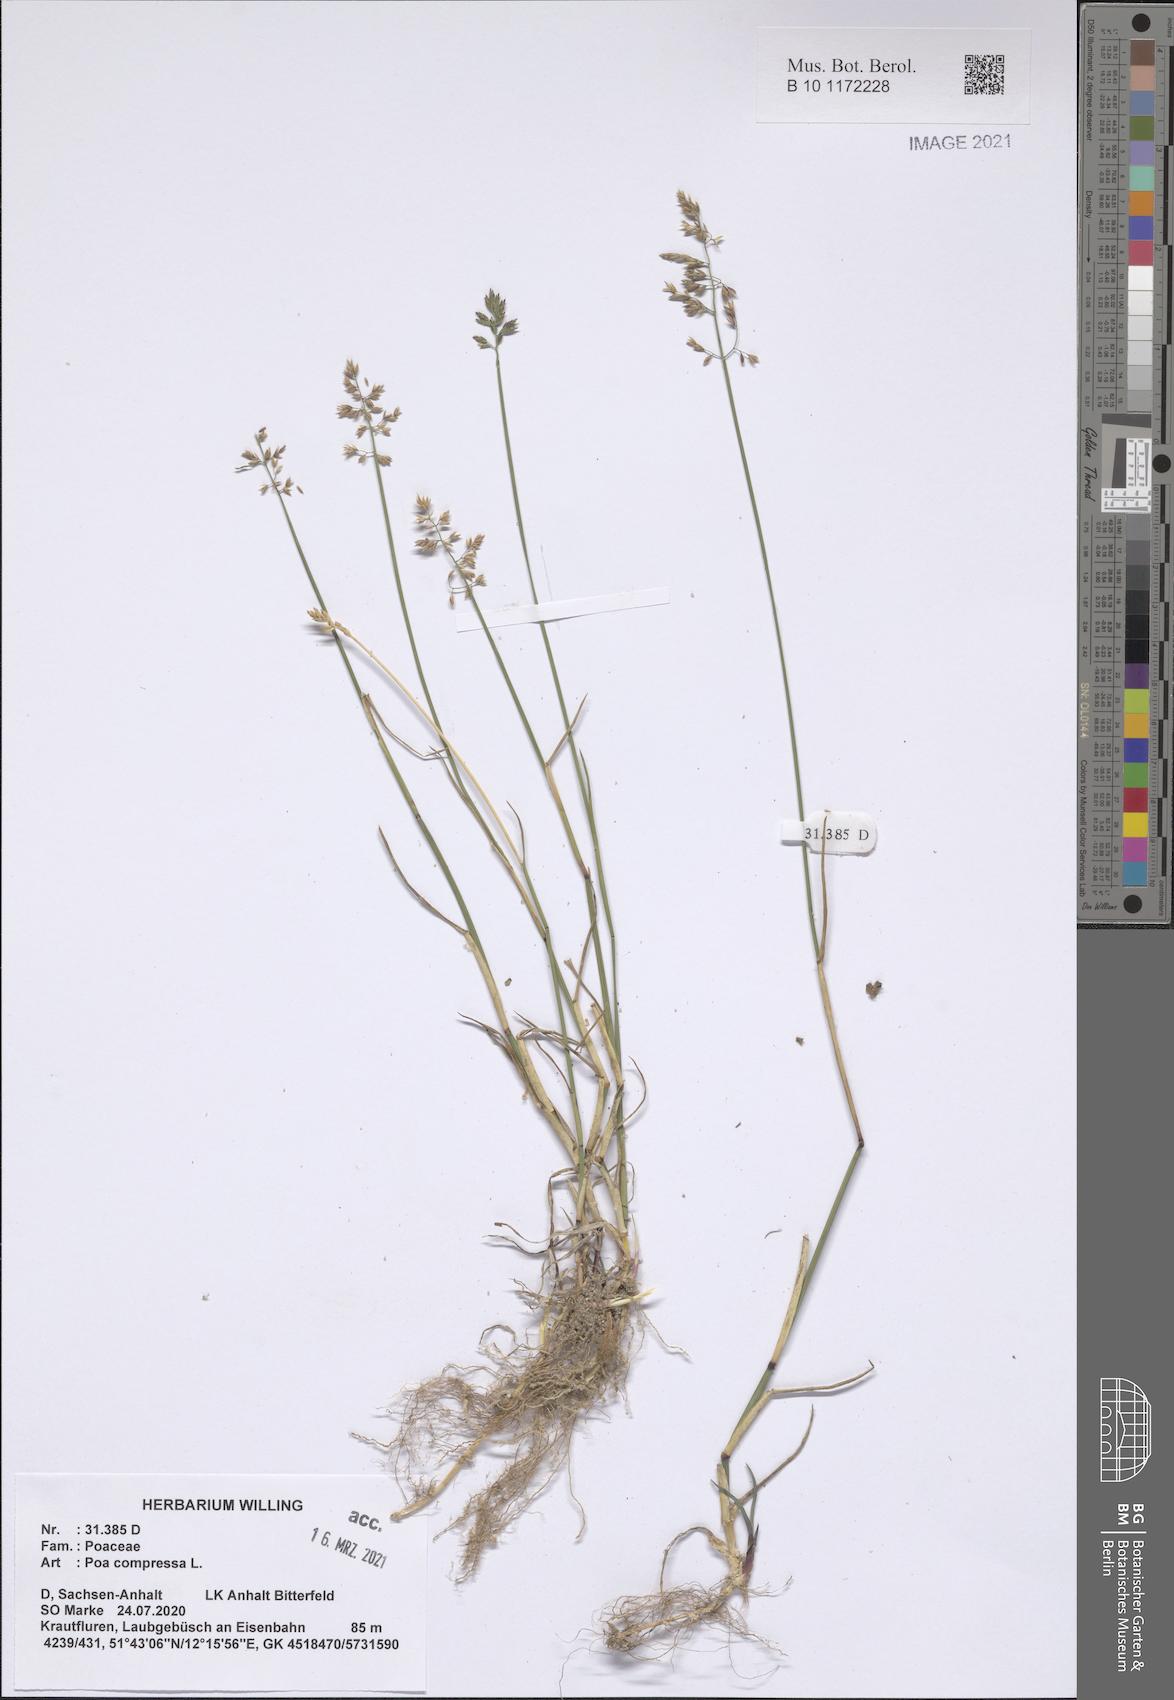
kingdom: Plantae
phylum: Tracheophyta
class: Liliopsida
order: Poales
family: Poaceae
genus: Poa
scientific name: Poa compressa
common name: Canada bluegrass
